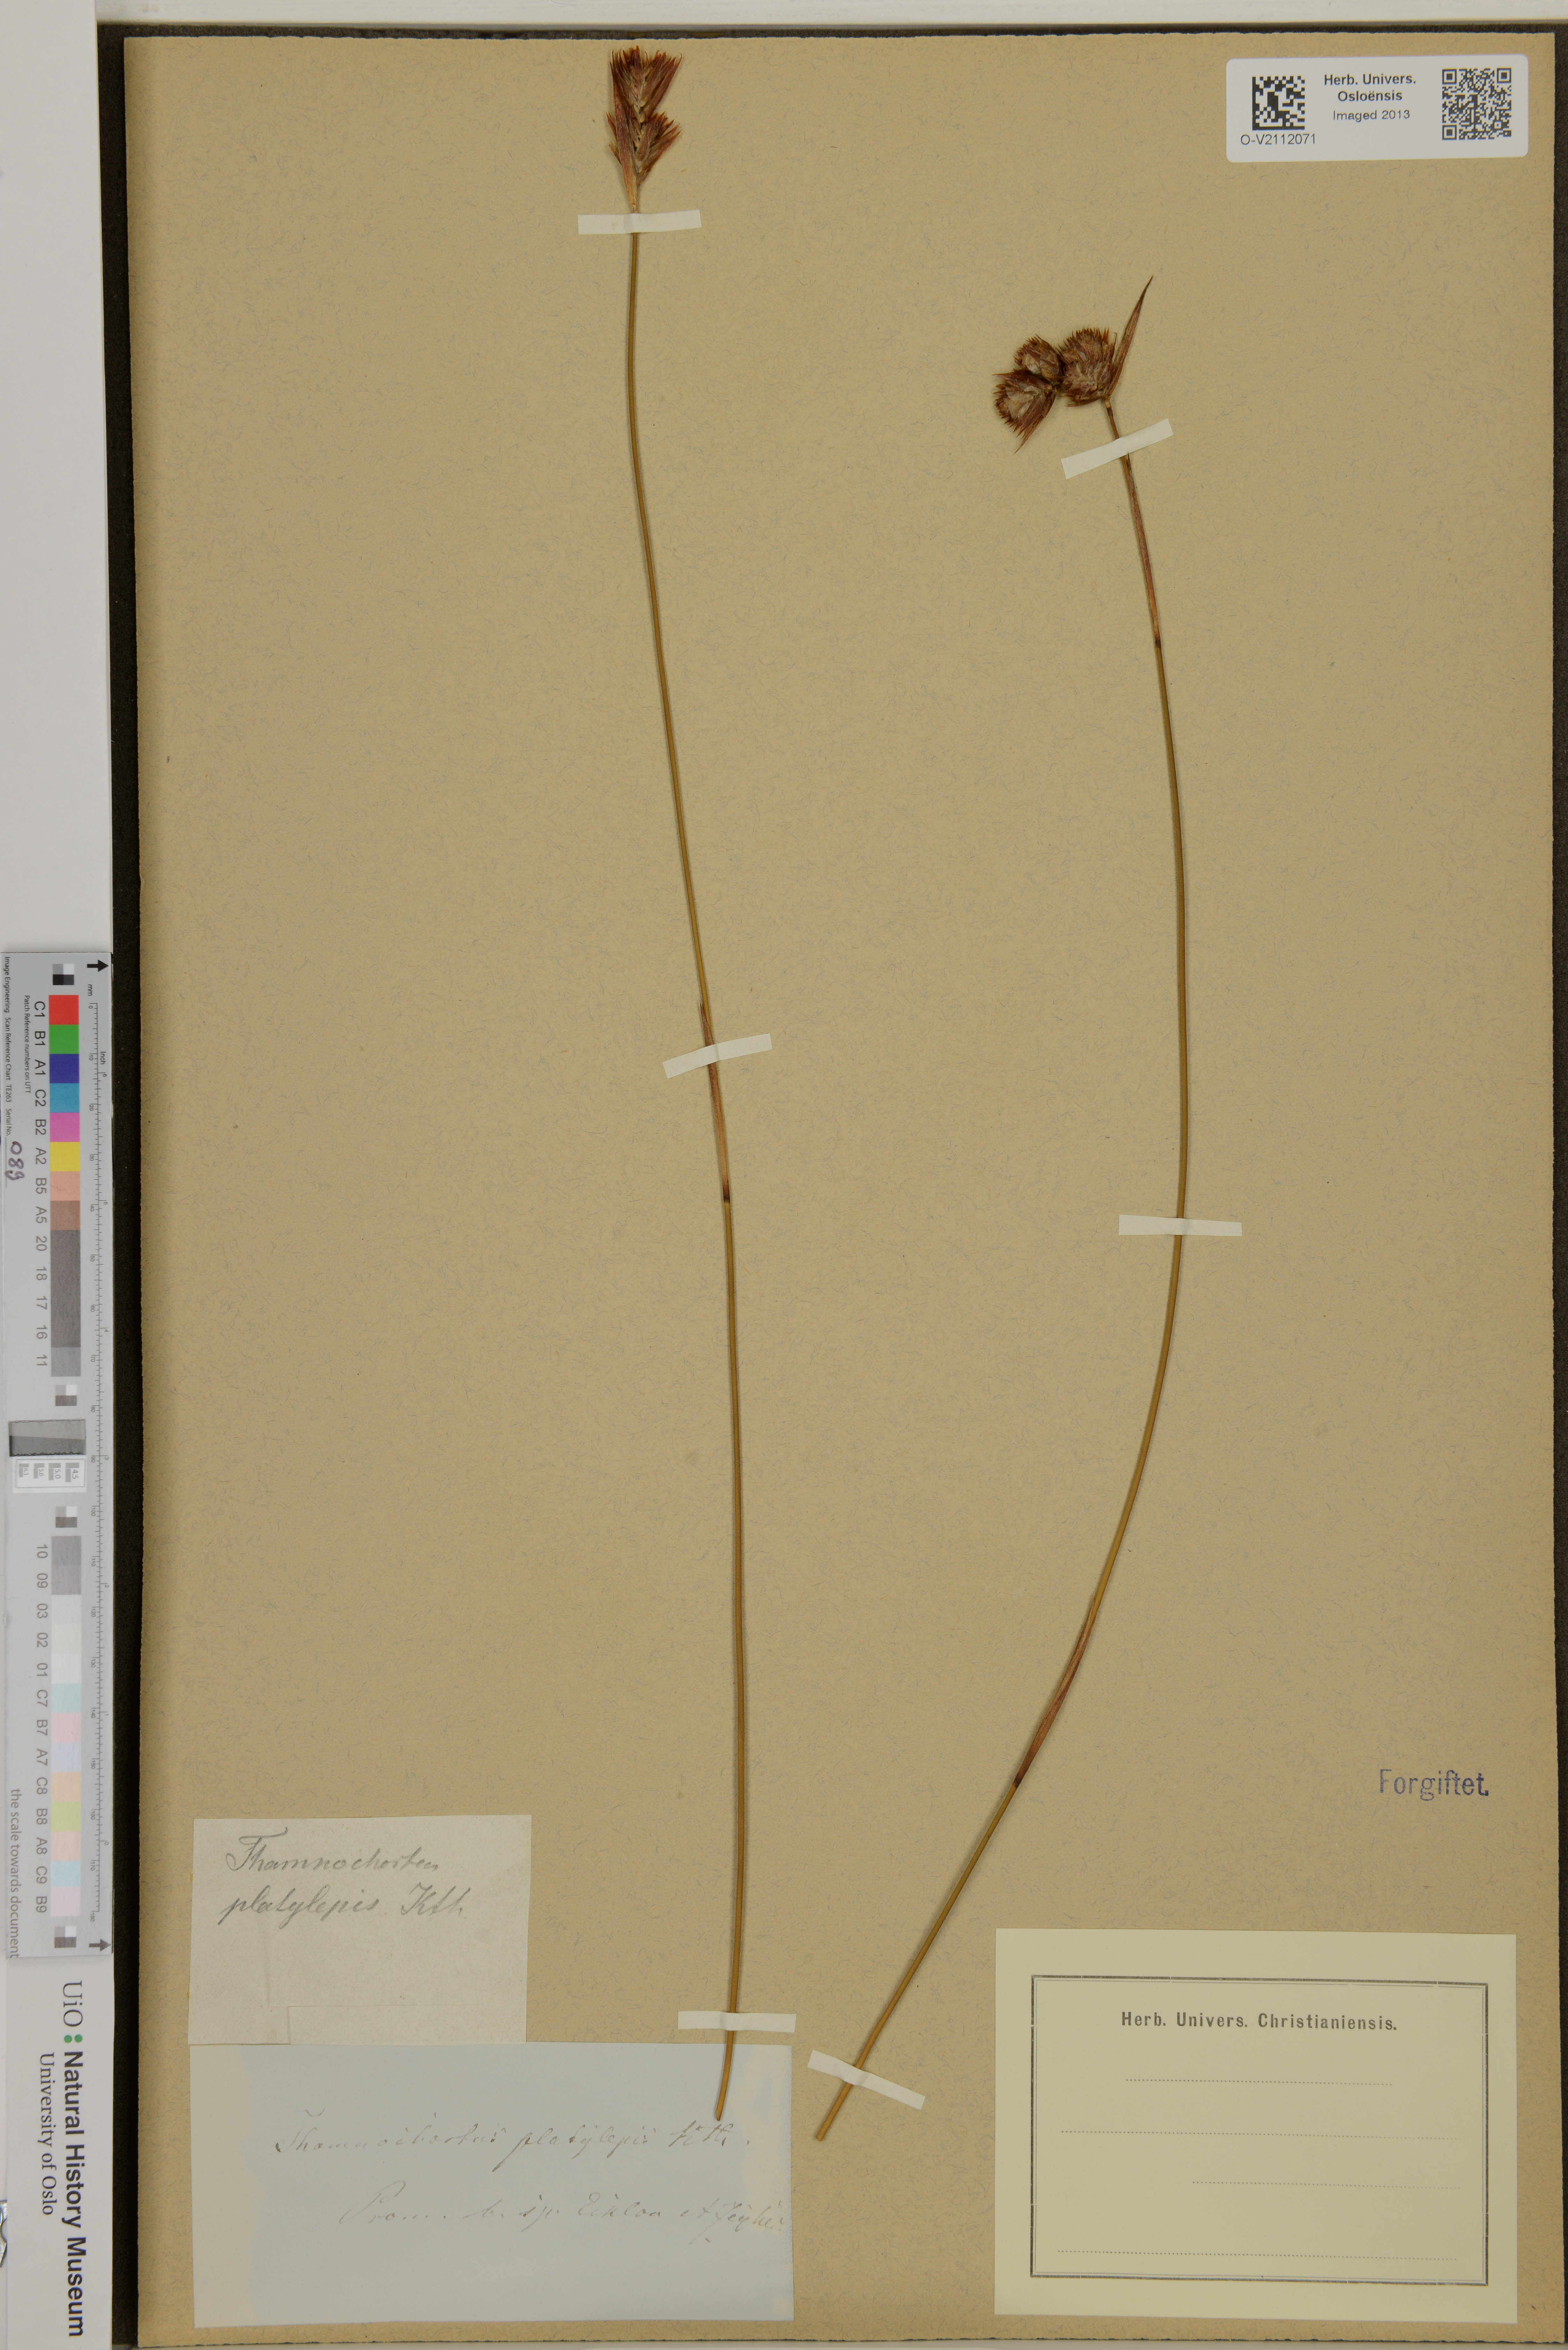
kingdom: Plantae
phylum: Tracheophyta
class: Liliopsida
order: Poales
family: Restionaceae
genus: Thamnochortus
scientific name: Thamnochortus platypteris
